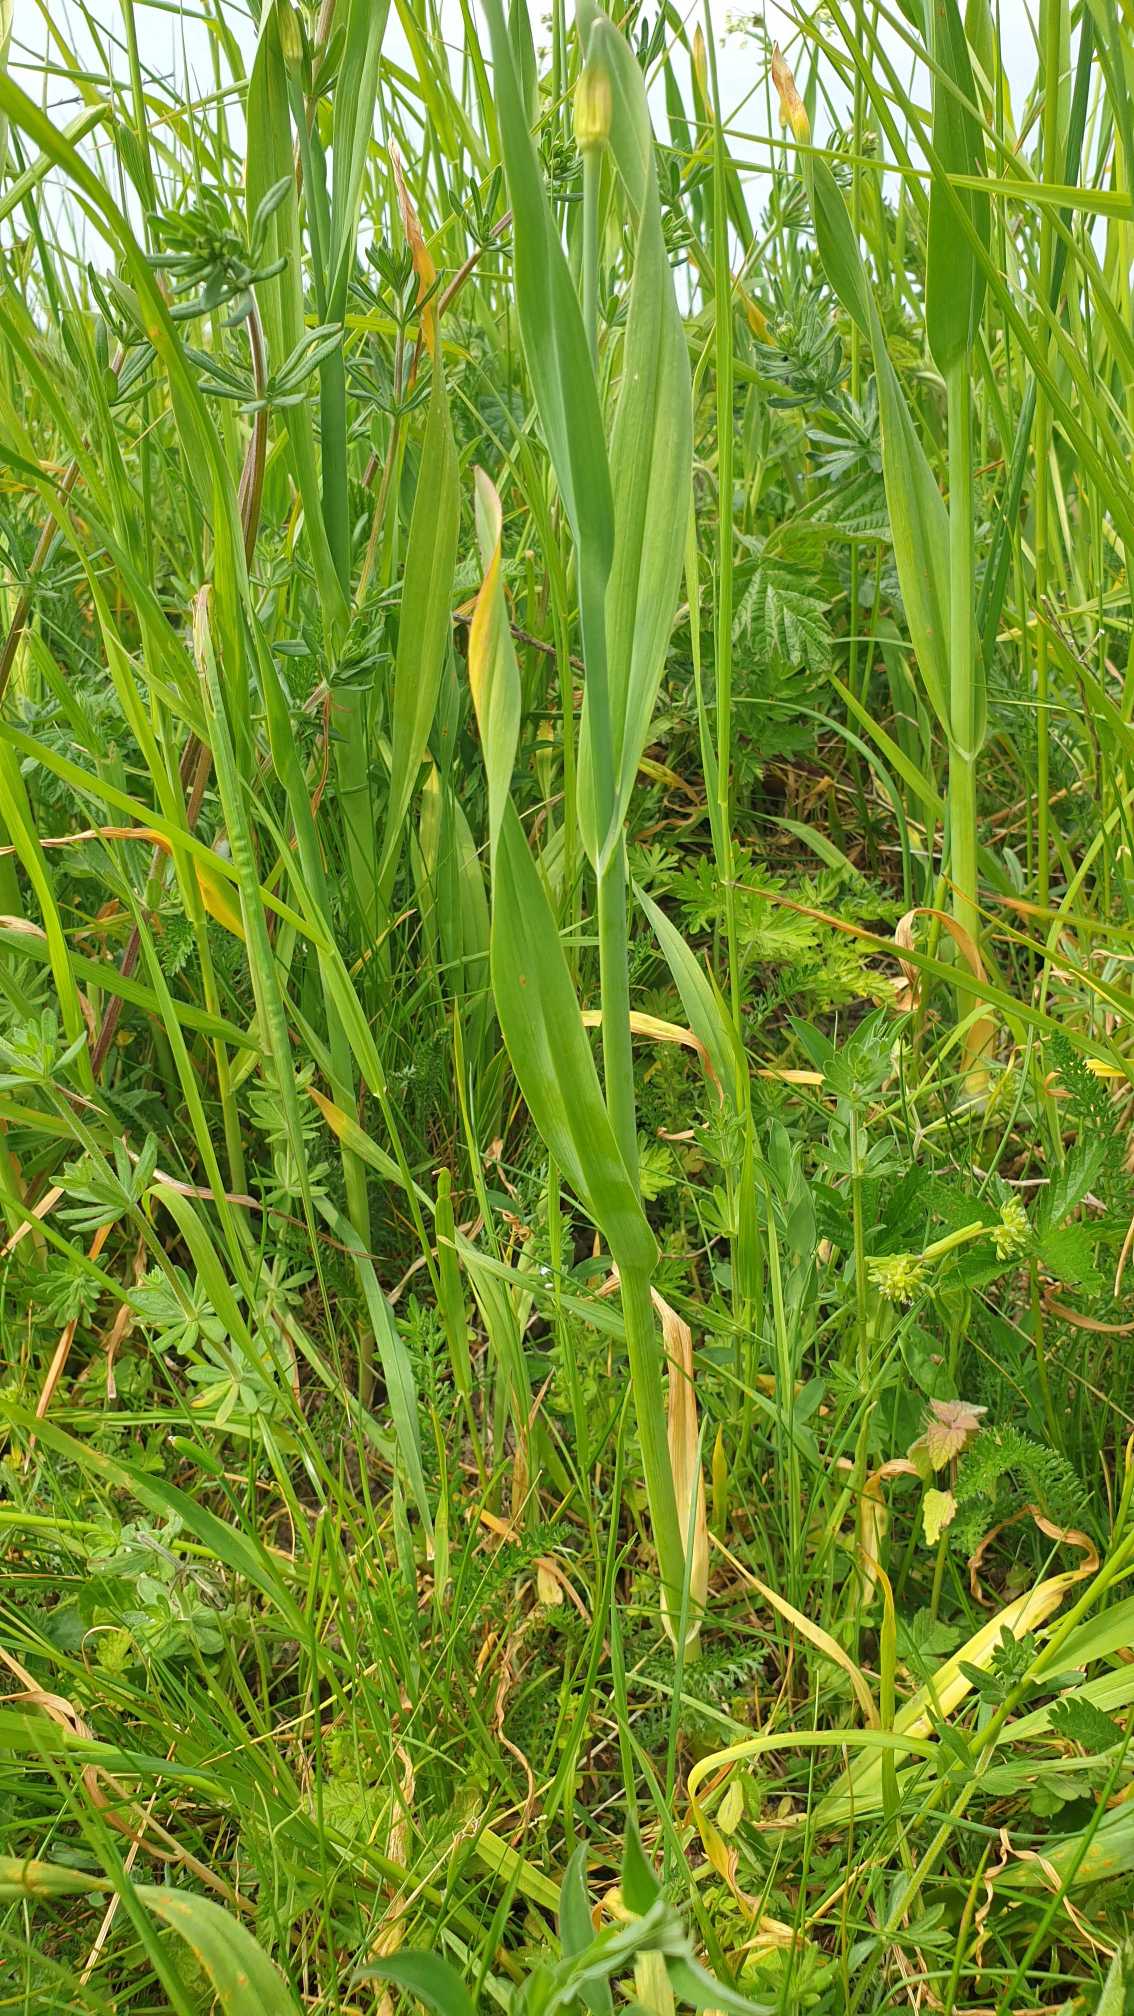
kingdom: Plantae
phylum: Tracheophyta
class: Liliopsida
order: Asparagales
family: Amaryllidaceae
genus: Allium
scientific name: Allium scorodoprasum
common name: Skov-løg
